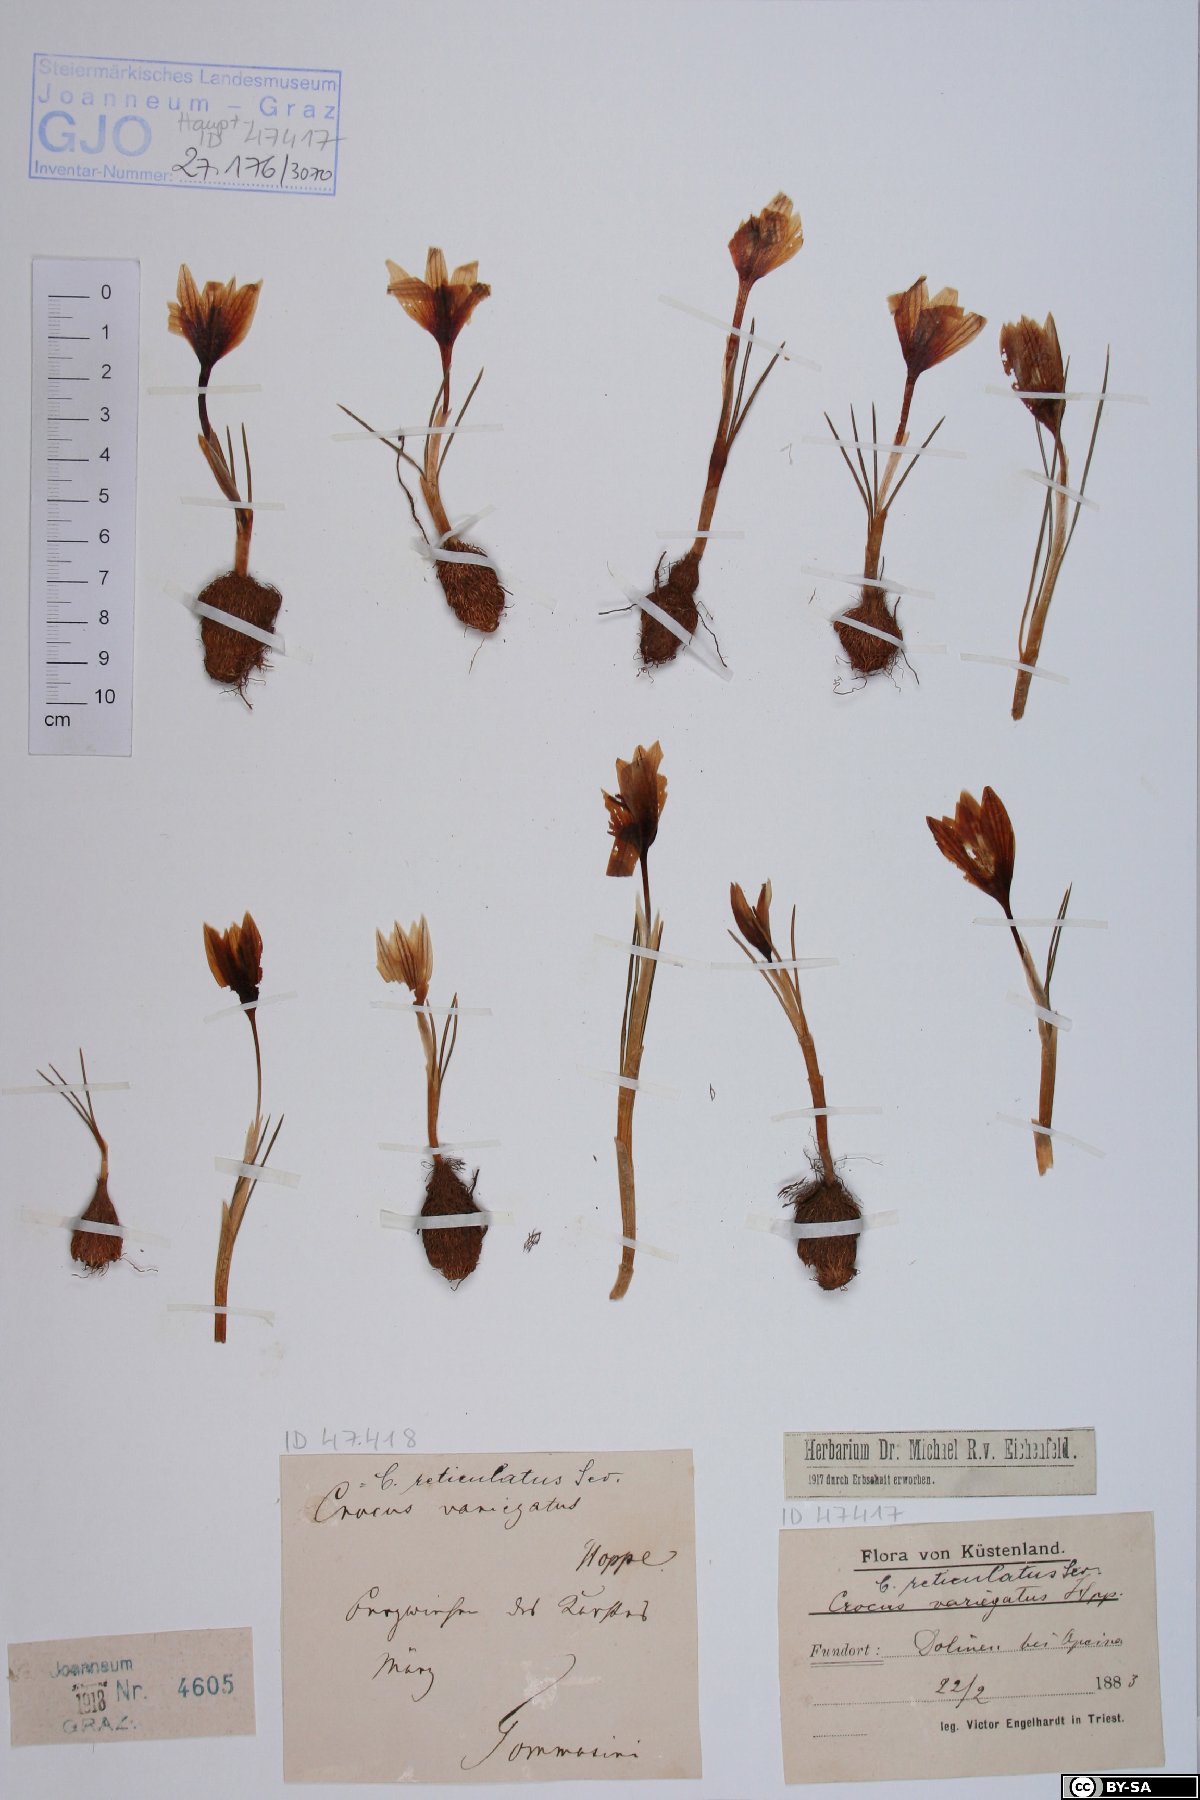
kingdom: Plantae
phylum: Tracheophyta
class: Liliopsida
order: Asparagales
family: Iridaceae
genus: Crocus
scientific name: Crocus variegatus
